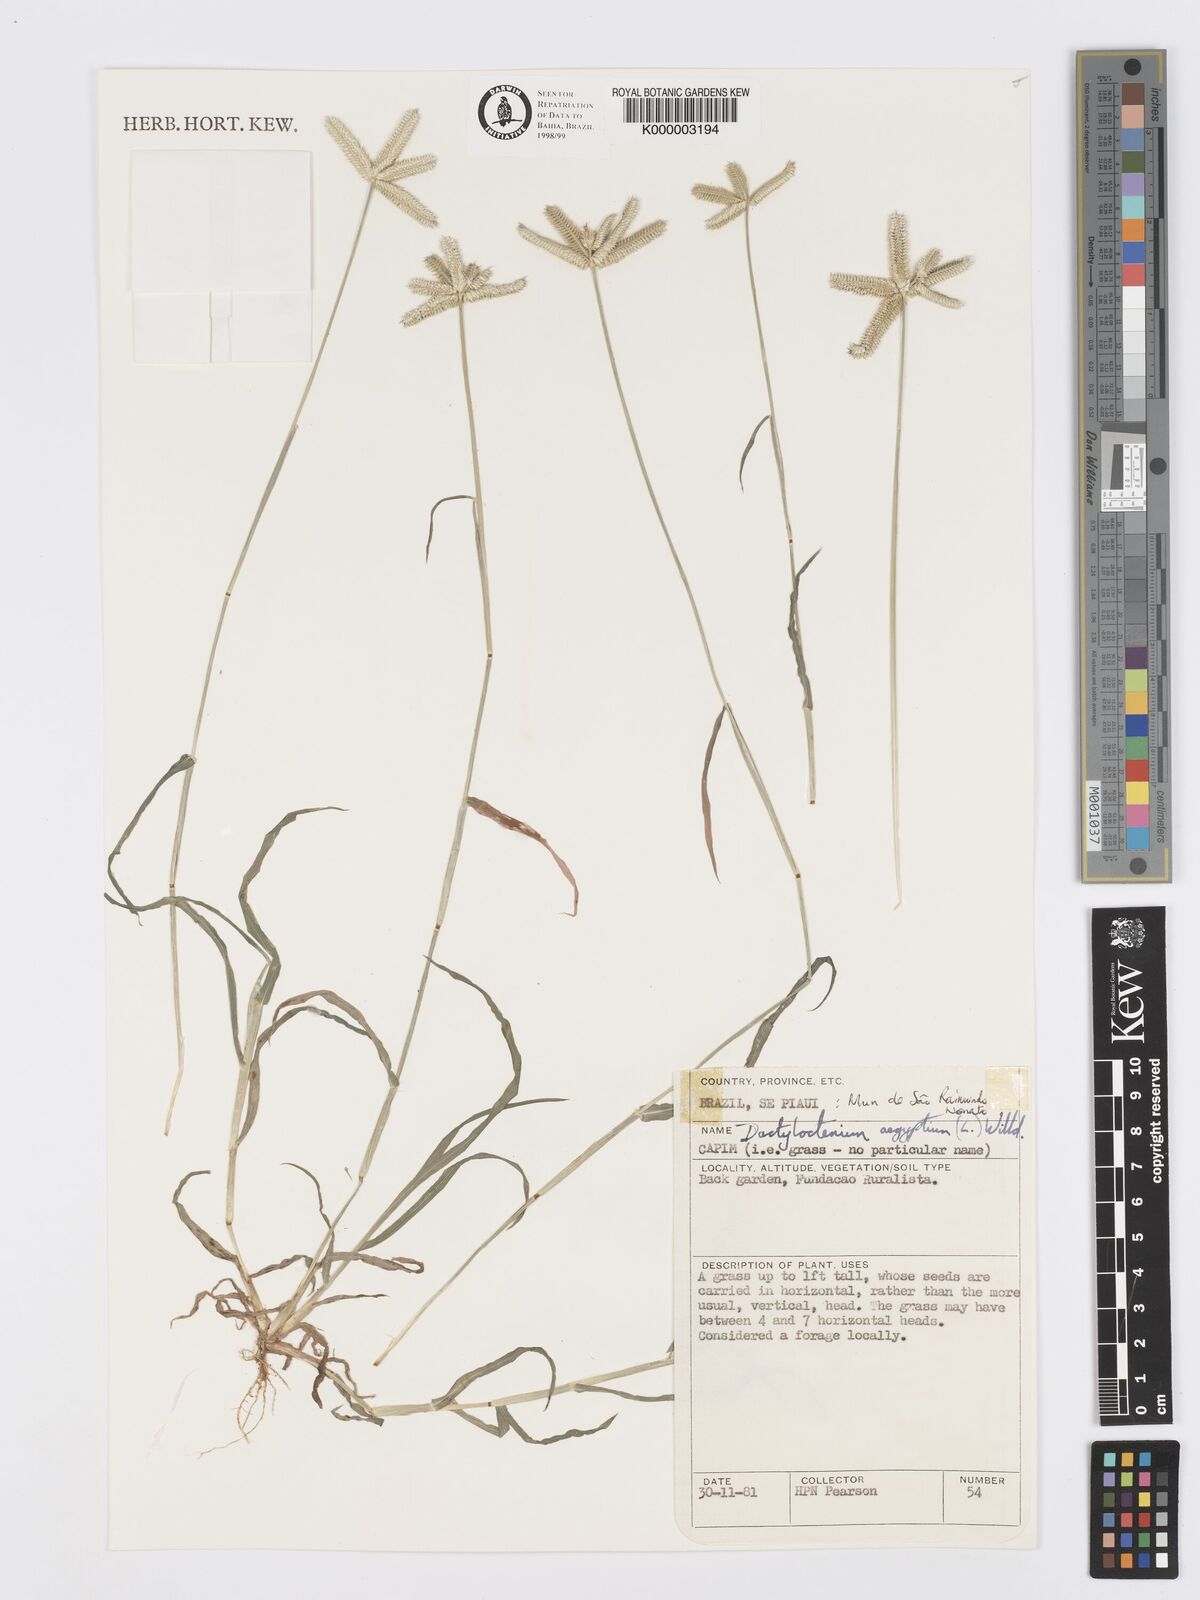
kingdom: Plantae
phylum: Tracheophyta
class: Liliopsida
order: Poales
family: Poaceae
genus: Dactyloctenium
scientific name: Dactyloctenium aegyptium
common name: Egyptian grass
